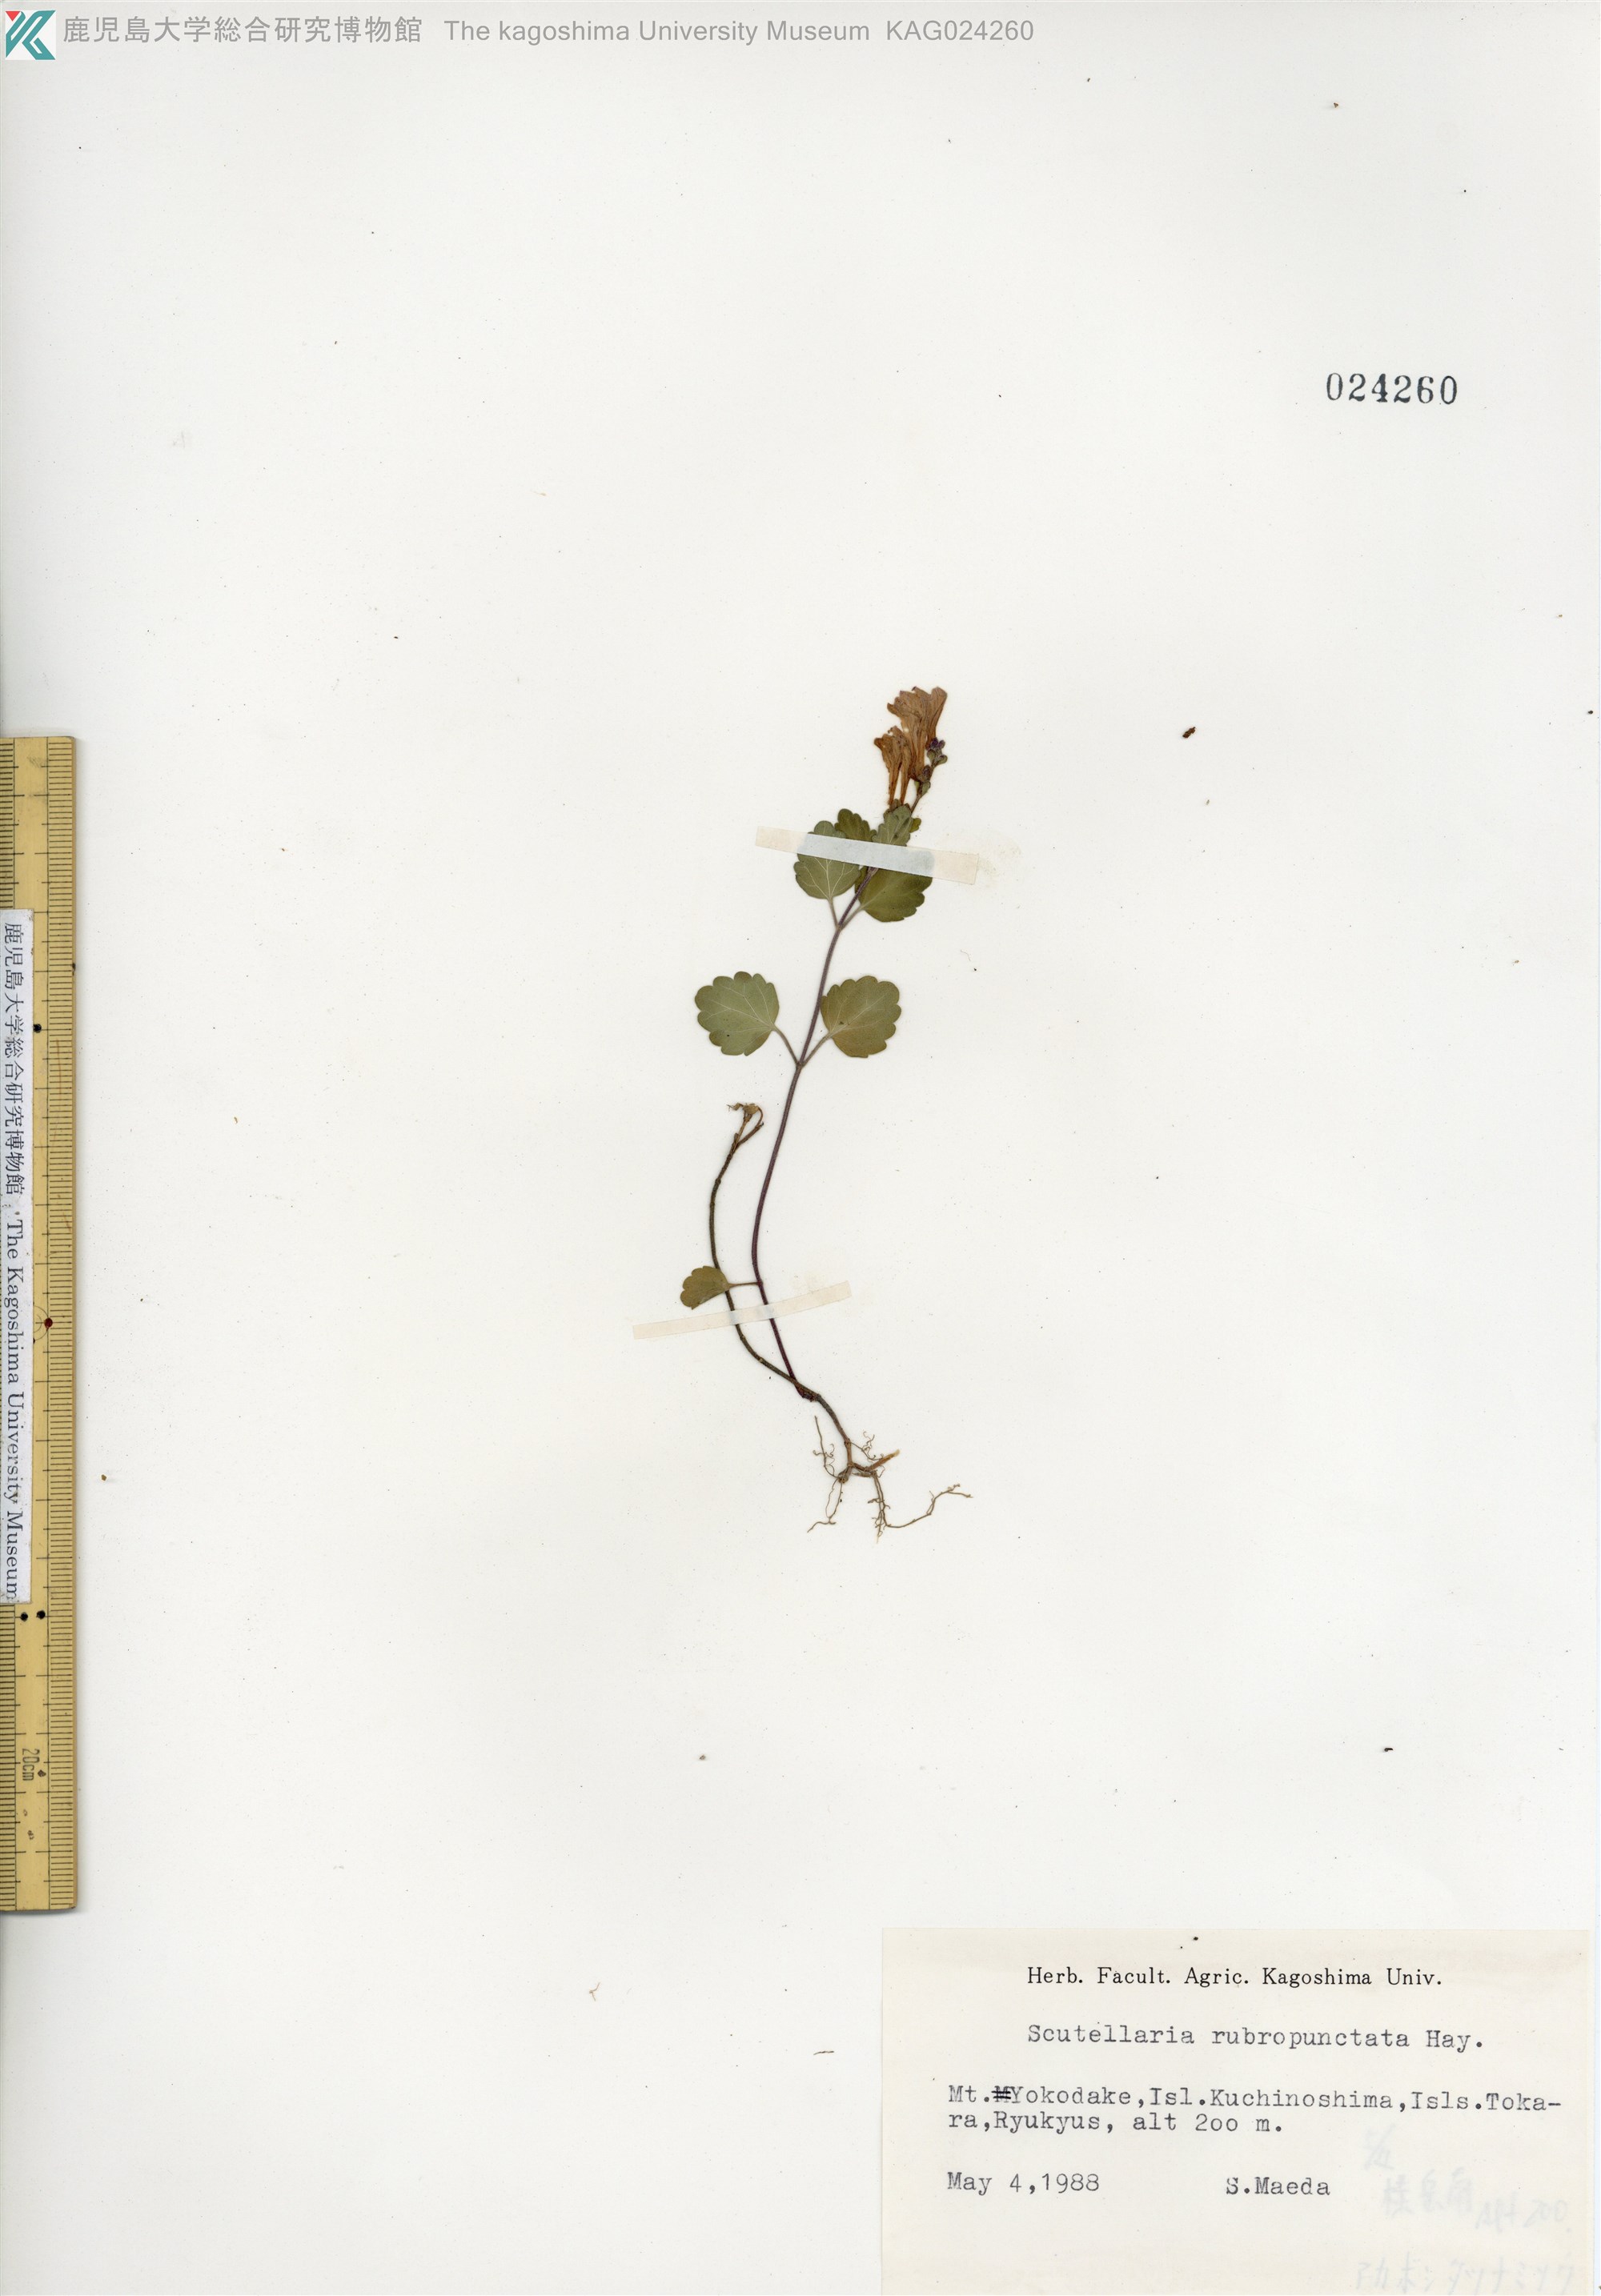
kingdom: Plantae
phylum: Tracheophyta
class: Magnoliopsida
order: Lamiales
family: Lamiaceae
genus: Scutellaria
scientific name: Scutellaria rubropunctata
